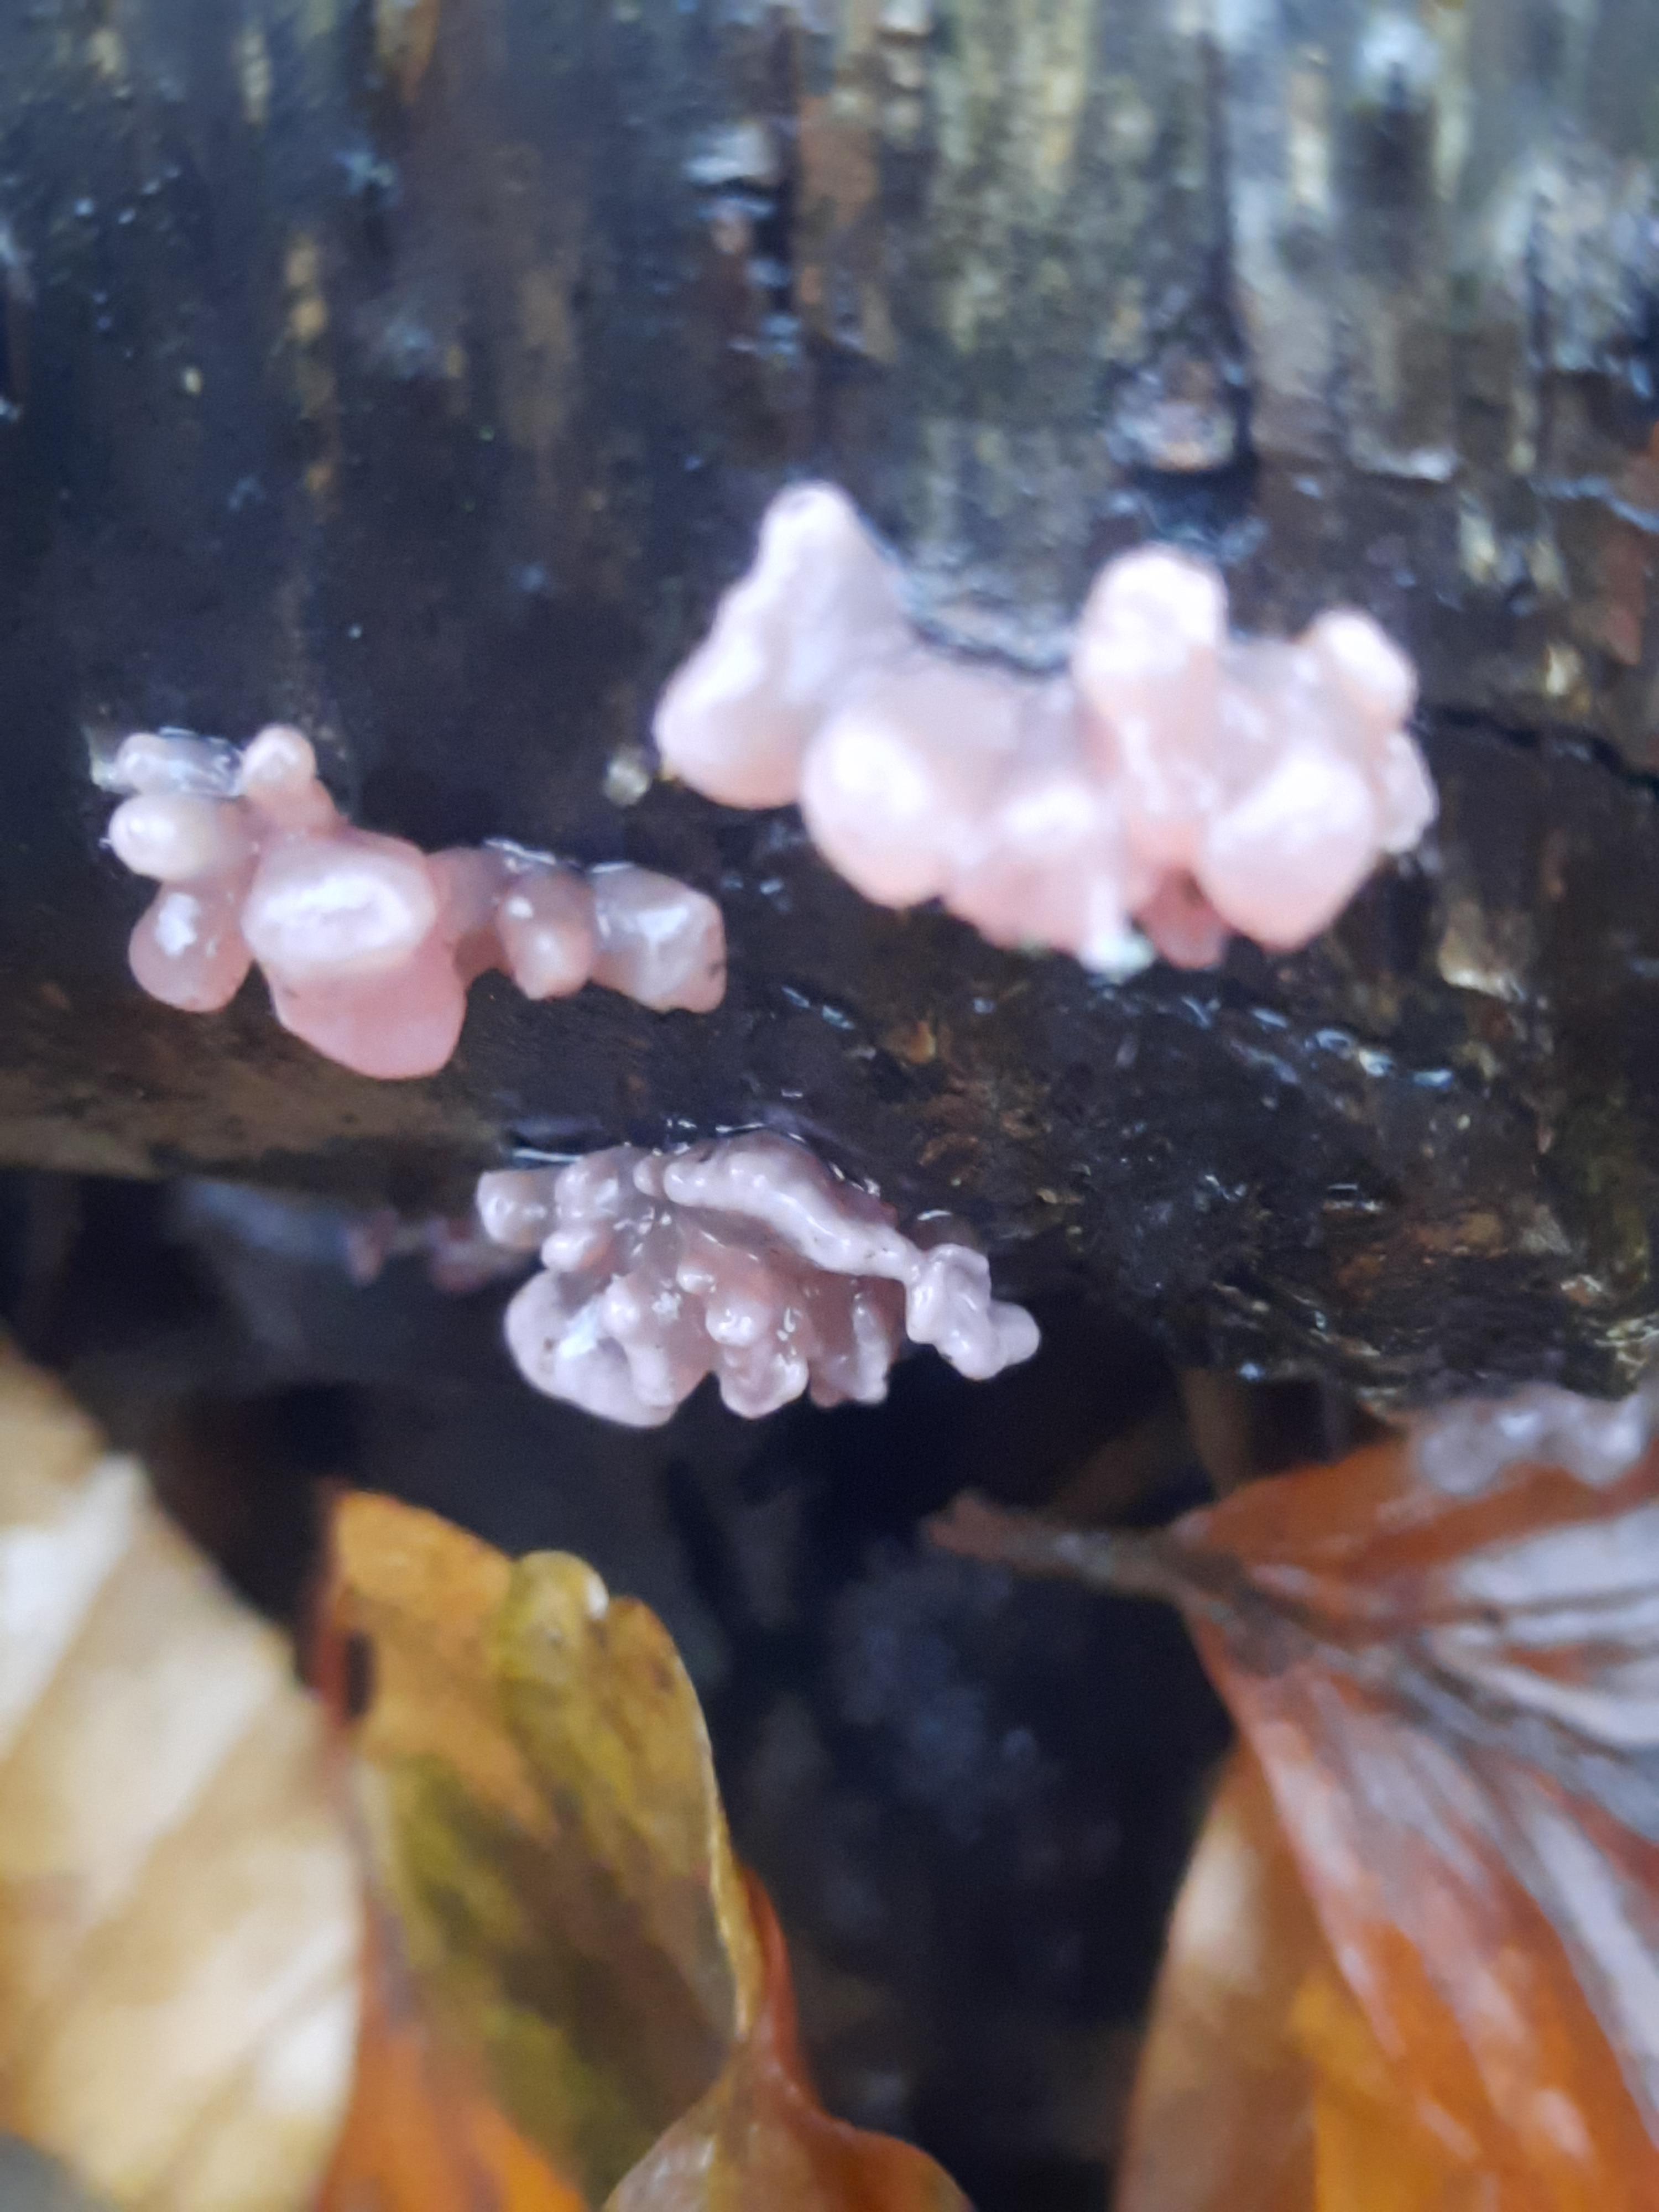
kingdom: Fungi
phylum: Ascomycota
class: Leotiomycetes
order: Helotiales
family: Gelatinodiscaceae
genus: Ascocoryne
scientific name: Ascocoryne sarcoides
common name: rødlilla sejskive
